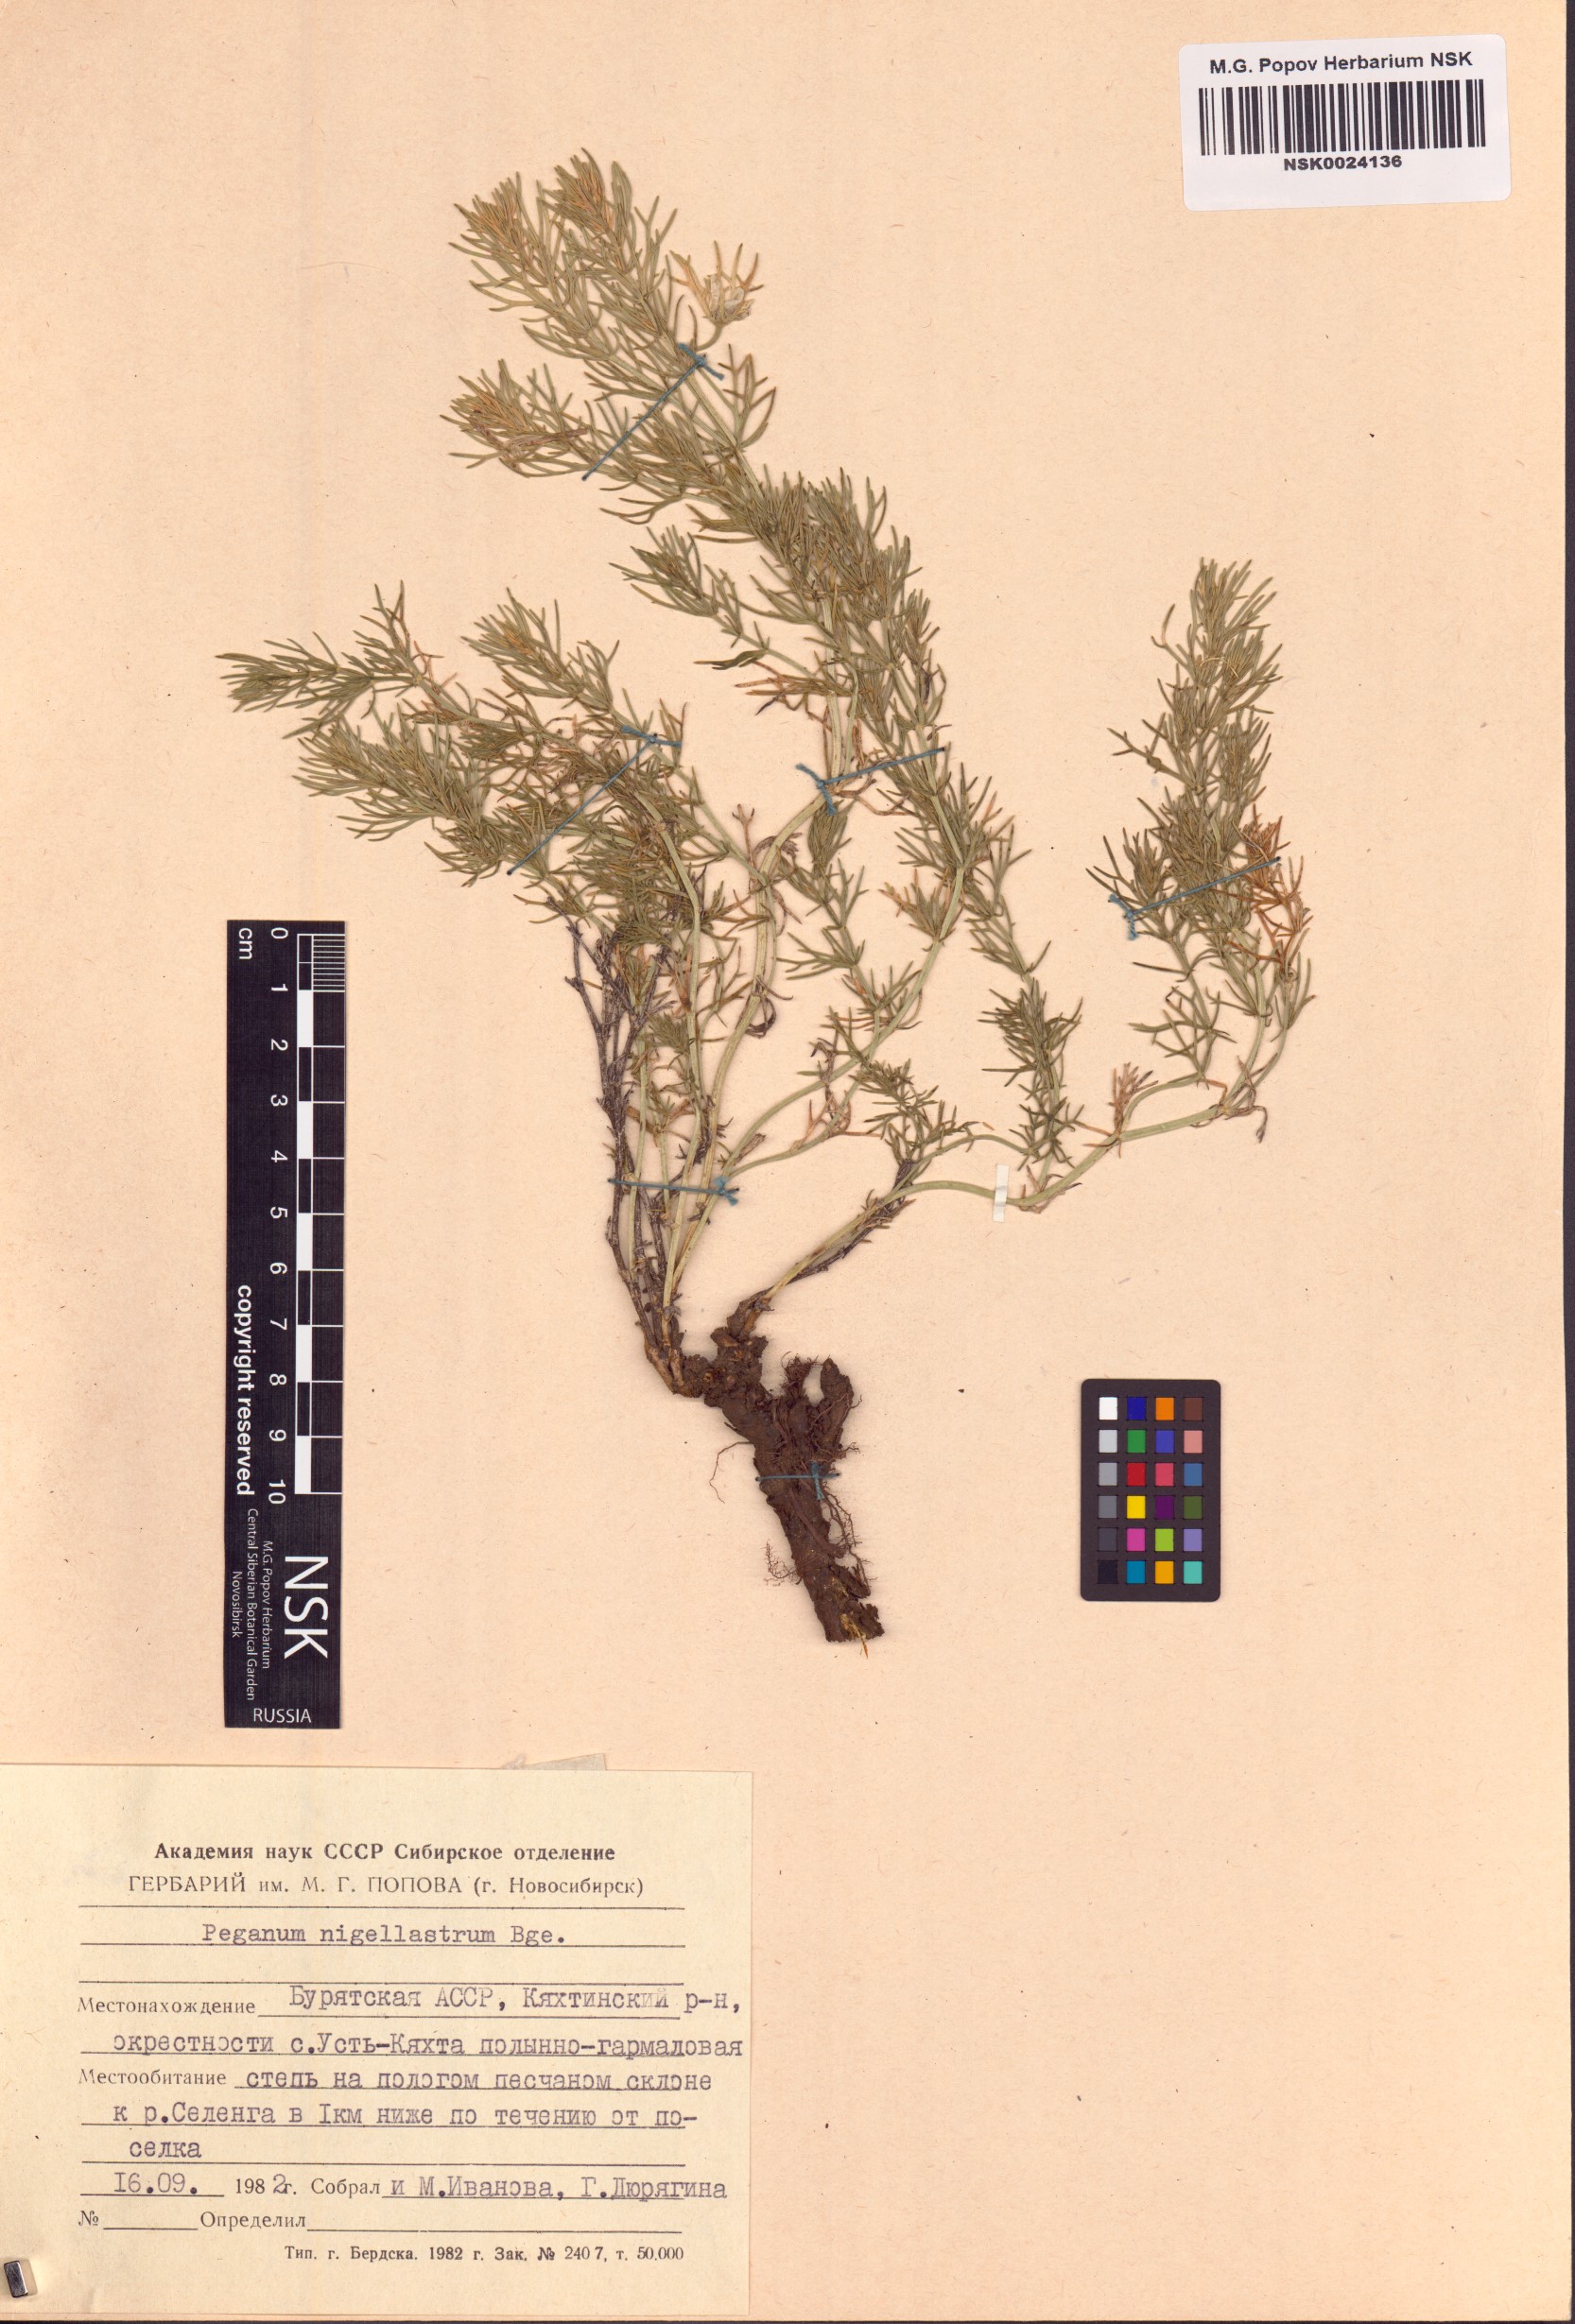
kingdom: Plantae
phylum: Tracheophyta
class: Magnoliopsida
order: Sapindales
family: Tetradiclidaceae
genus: Peganum
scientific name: Peganum nigellastrum
